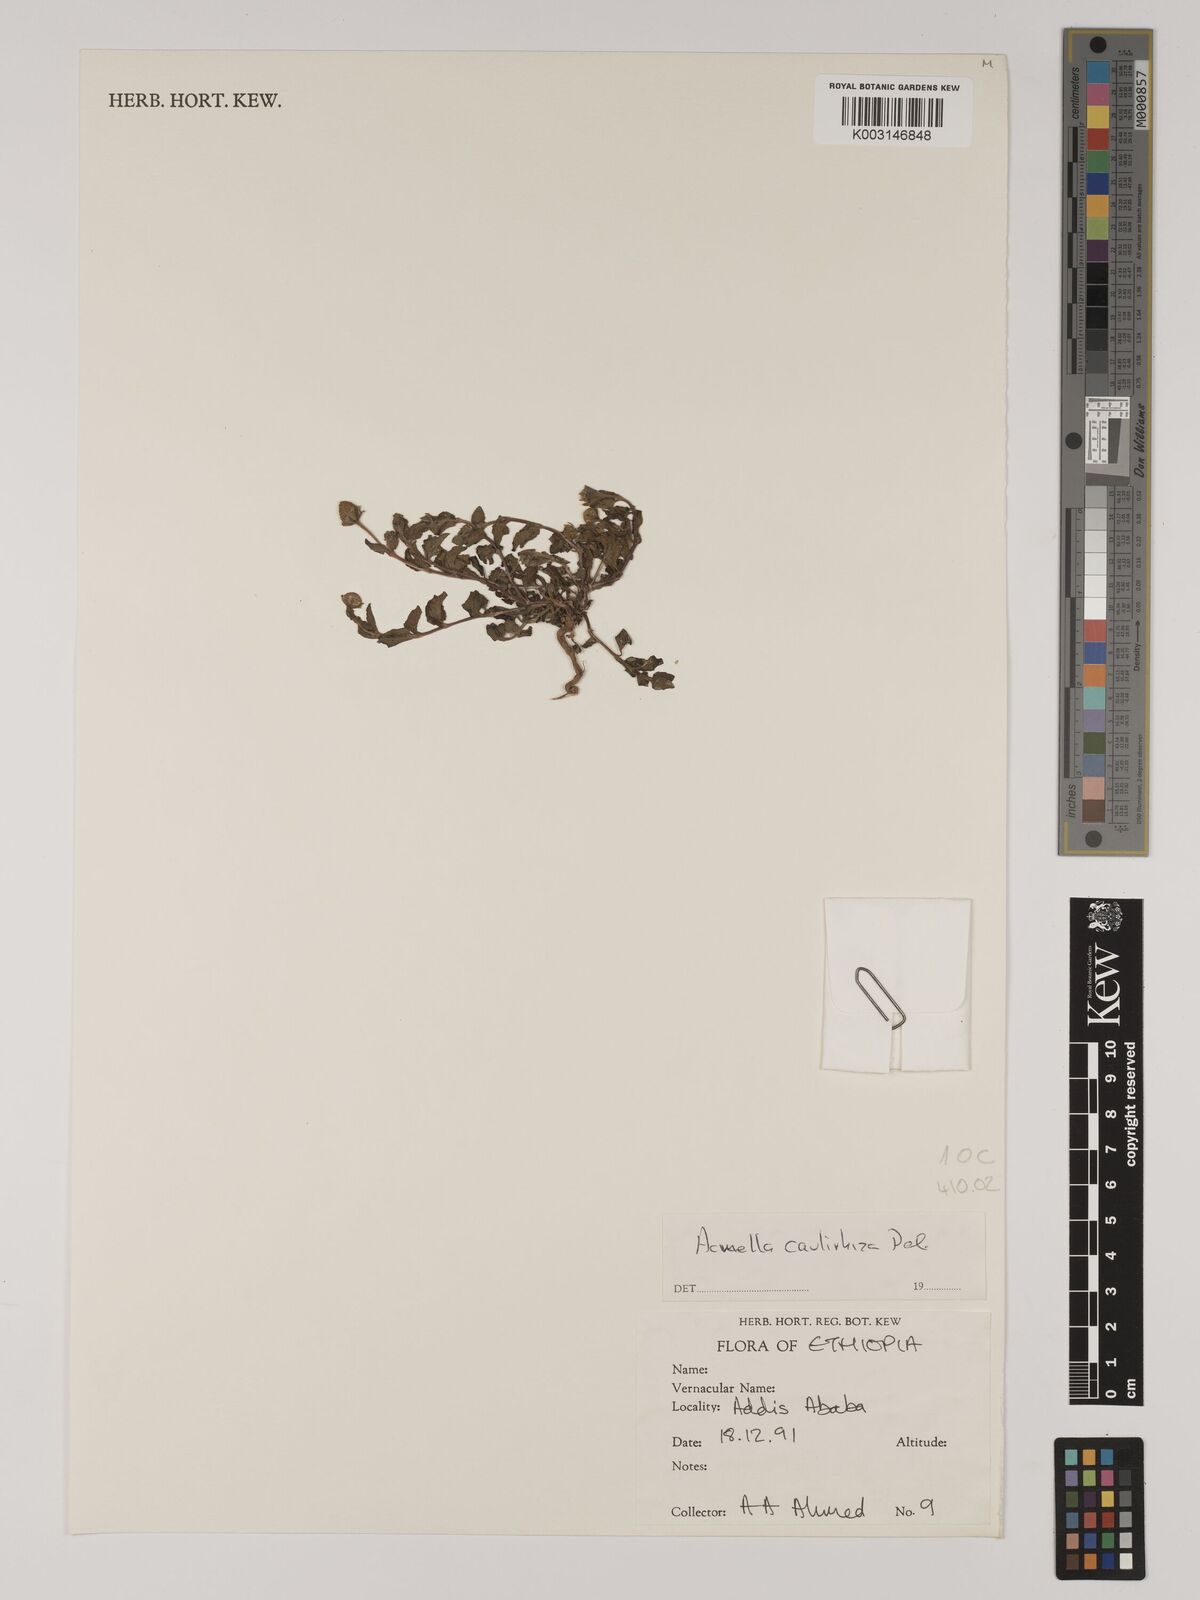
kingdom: Plantae
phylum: Tracheophyta
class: Magnoliopsida
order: Asterales
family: Asteraceae
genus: Acmella
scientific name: Acmella caulirhiza
